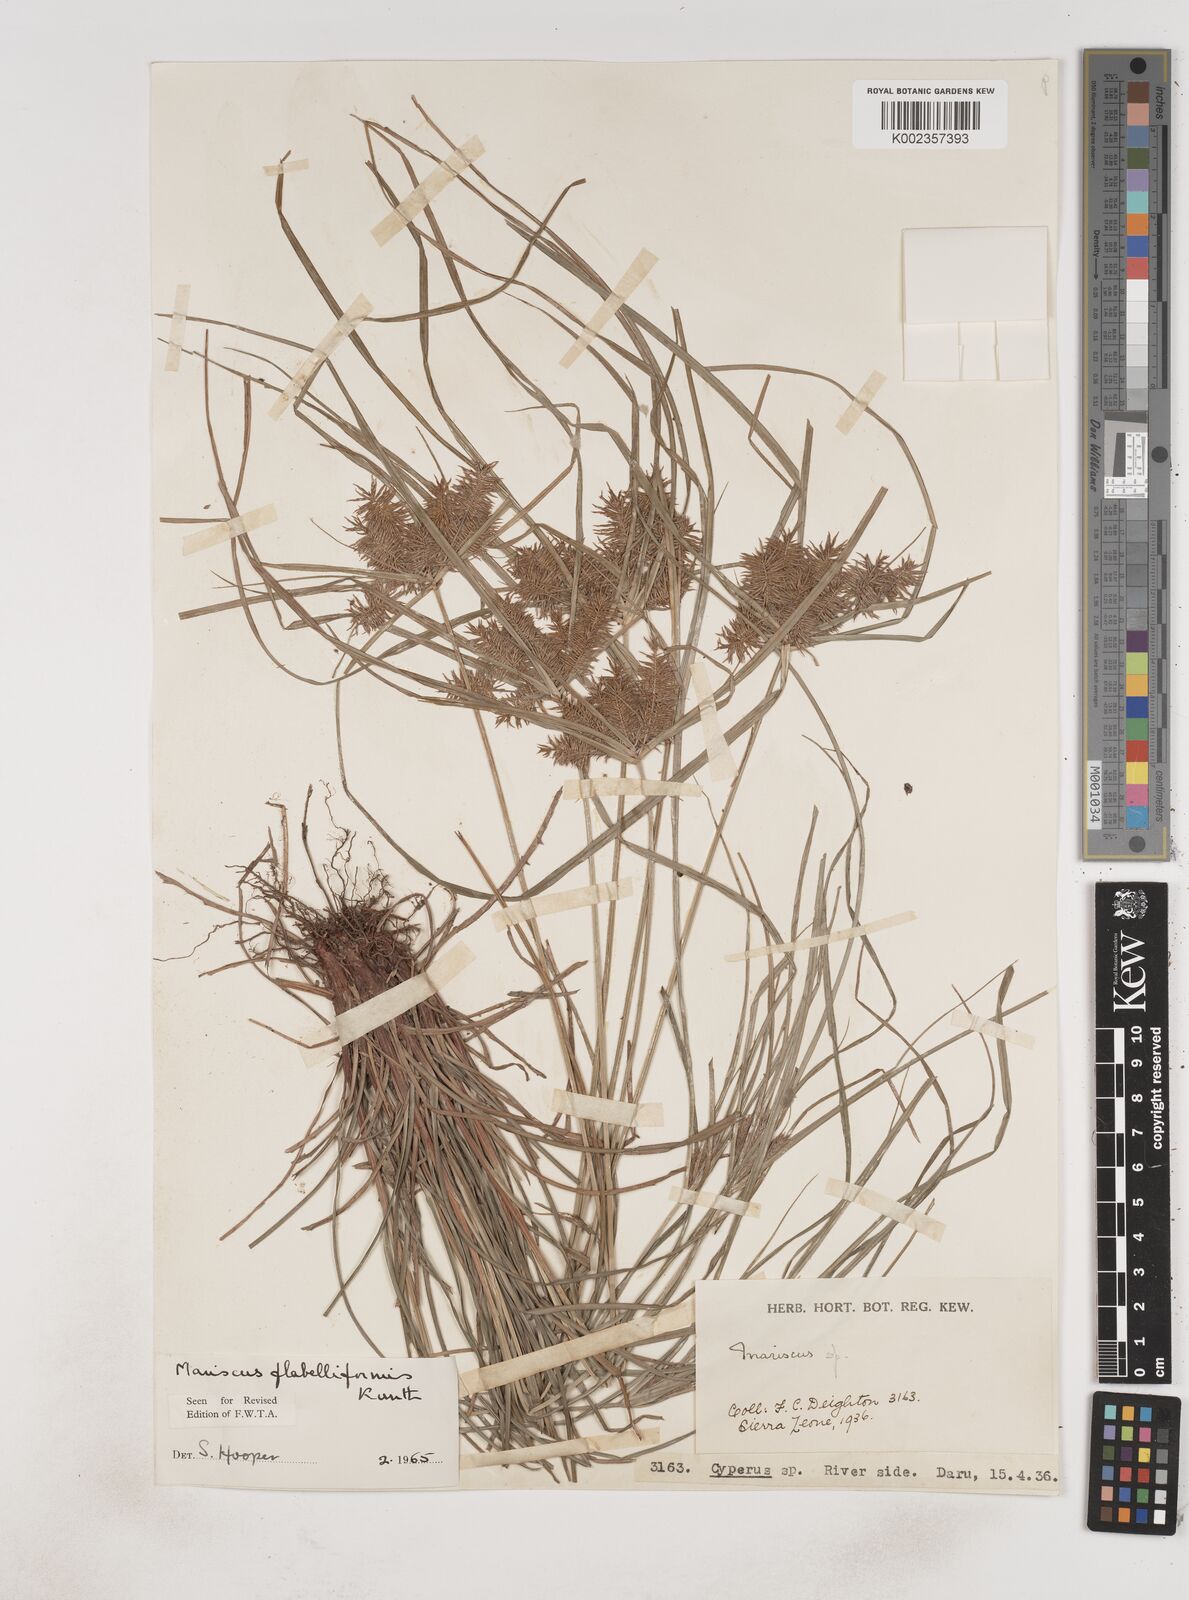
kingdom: Plantae
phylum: Tracheophyta
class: Liliopsida
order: Poales
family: Cyperaceae
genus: Cyperus
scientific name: Cyperus tenuis
